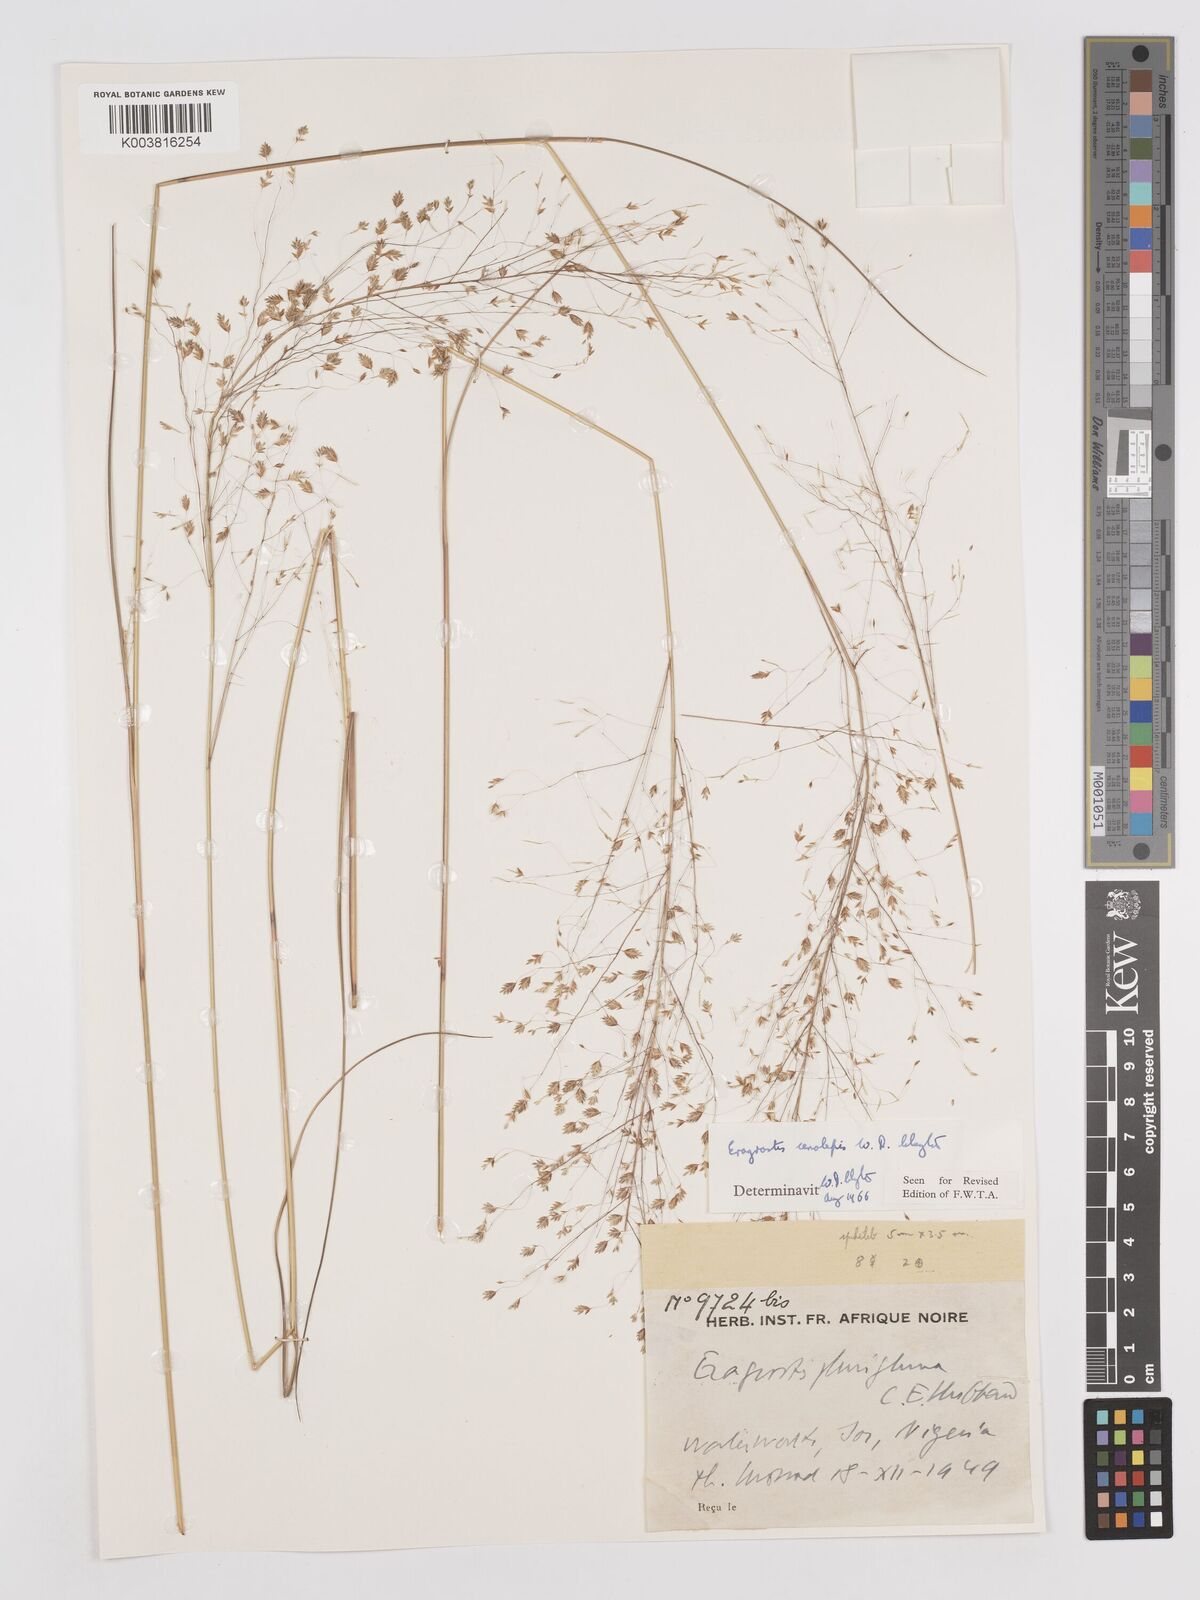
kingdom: Plantae
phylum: Tracheophyta
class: Liliopsida
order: Poales
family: Poaceae
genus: Eragrostis
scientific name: Eragrostis cenolepis
